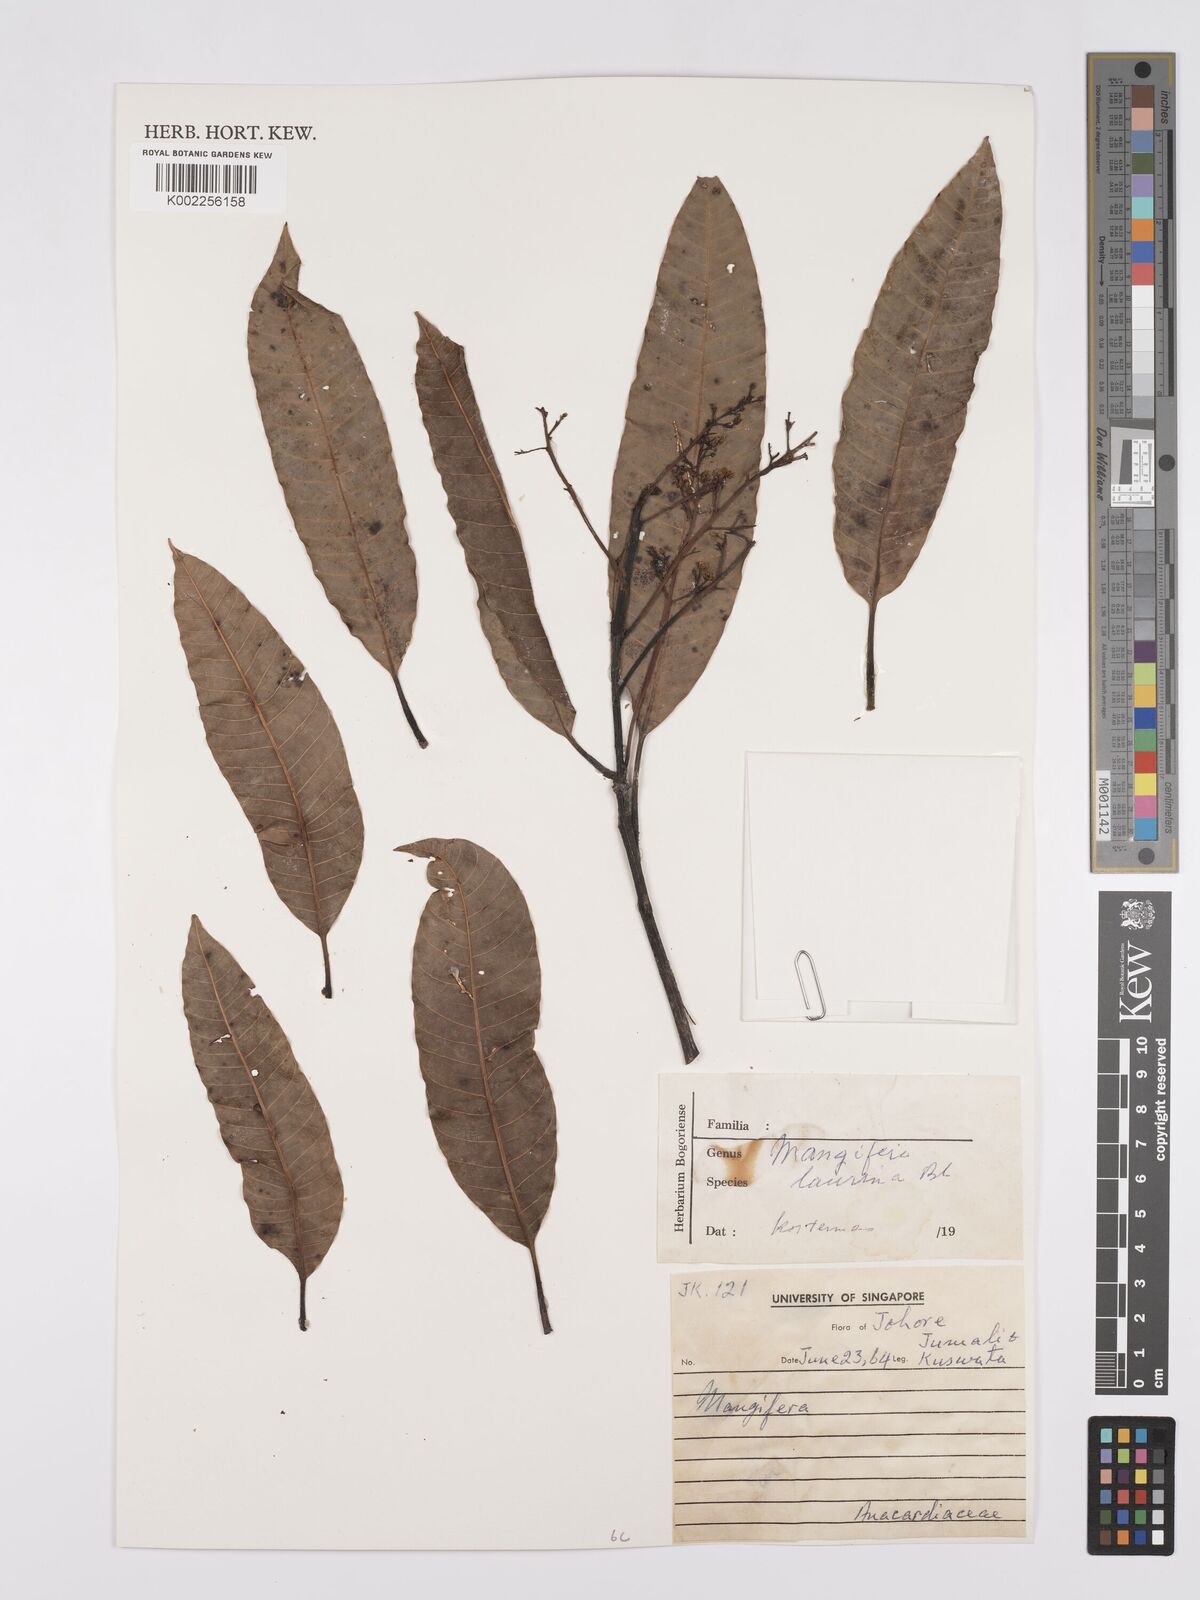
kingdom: Plantae
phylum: Tracheophyta
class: Magnoliopsida
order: Sapindales
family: Anacardiaceae
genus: Mangifera
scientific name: Mangifera laurina
